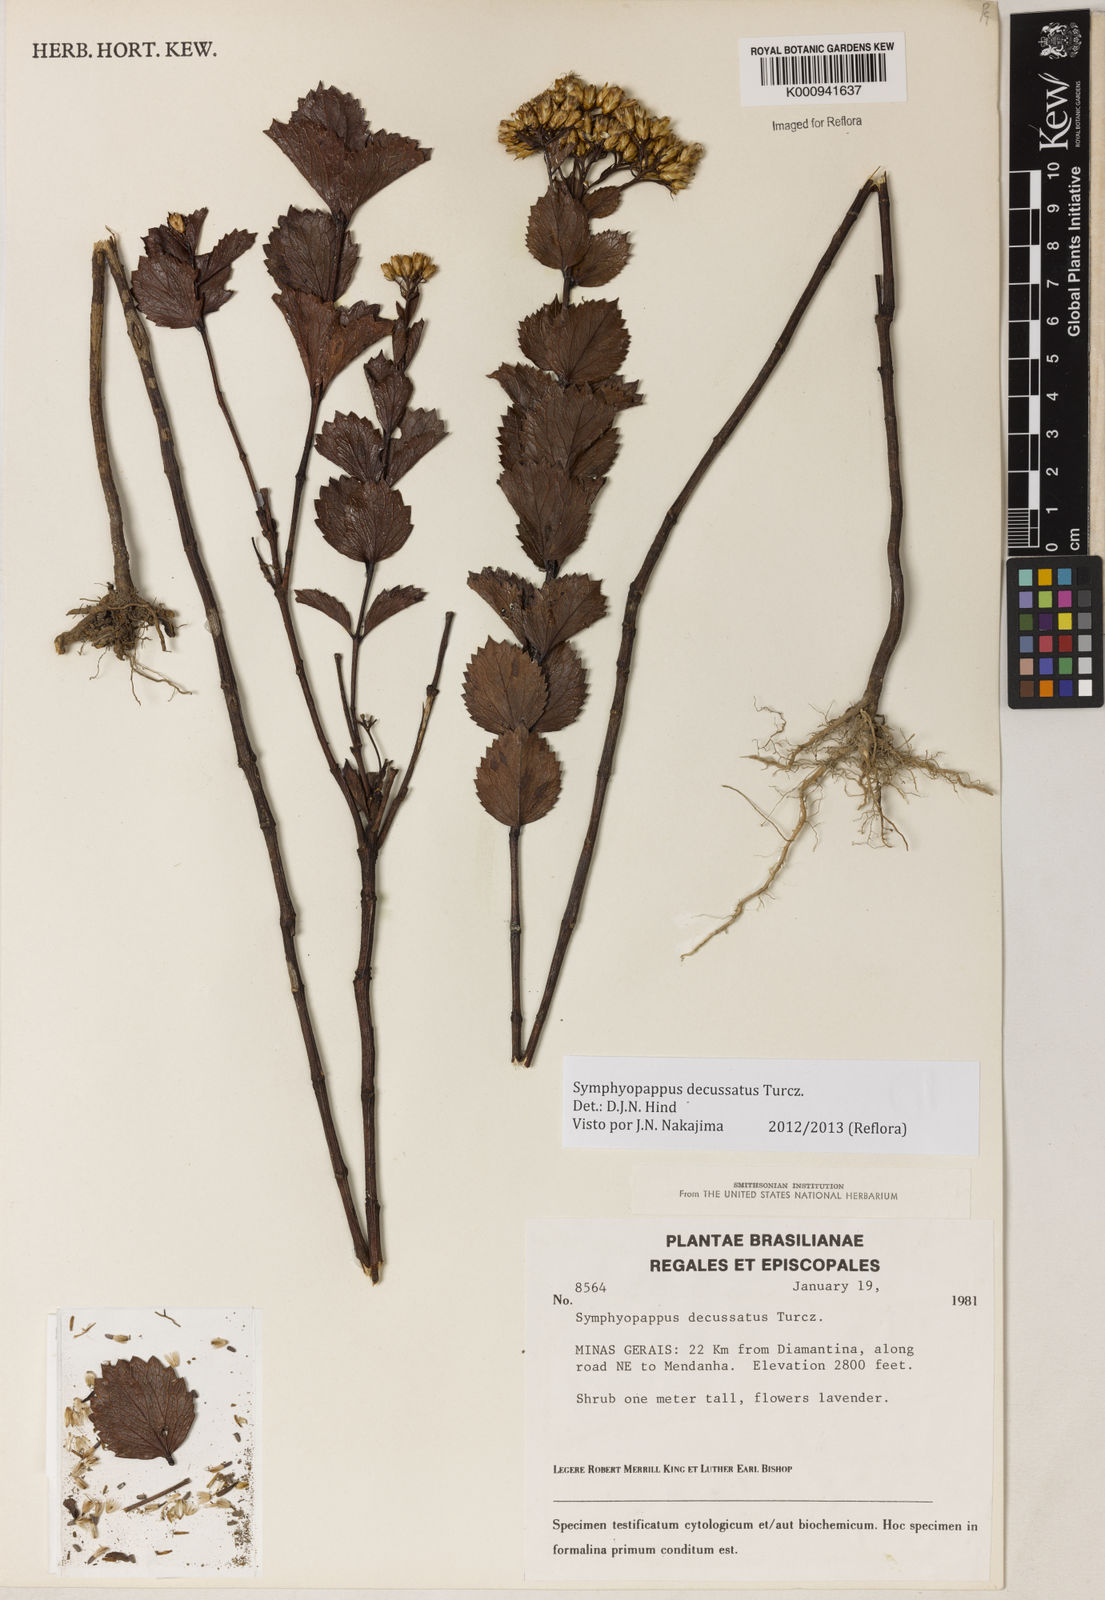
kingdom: Plantae
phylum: Tracheophyta
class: Magnoliopsida
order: Asterales
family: Asteraceae
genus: Symphyopappus
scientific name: Symphyopappus decussatus
